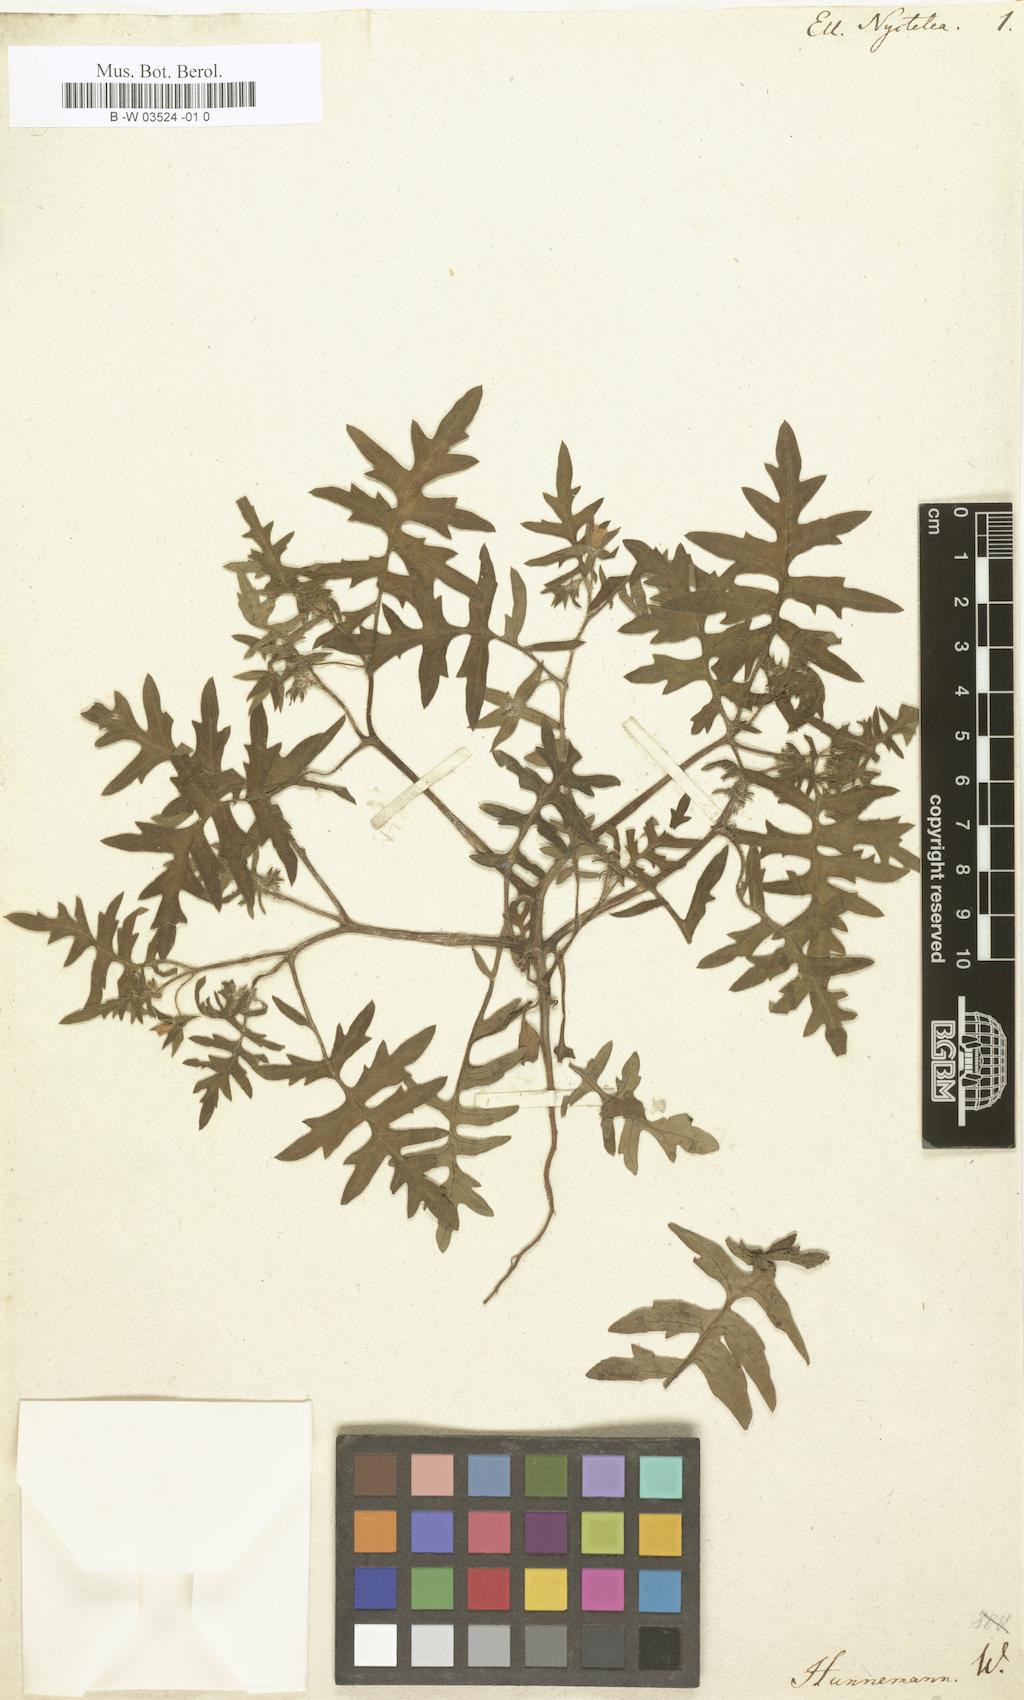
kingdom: Plantae
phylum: Tracheophyta
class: Magnoliopsida
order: Boraginales
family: Hydrophyllaceae
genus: Ellisia
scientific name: Ellisia nyctelea
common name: Aunt lucy
